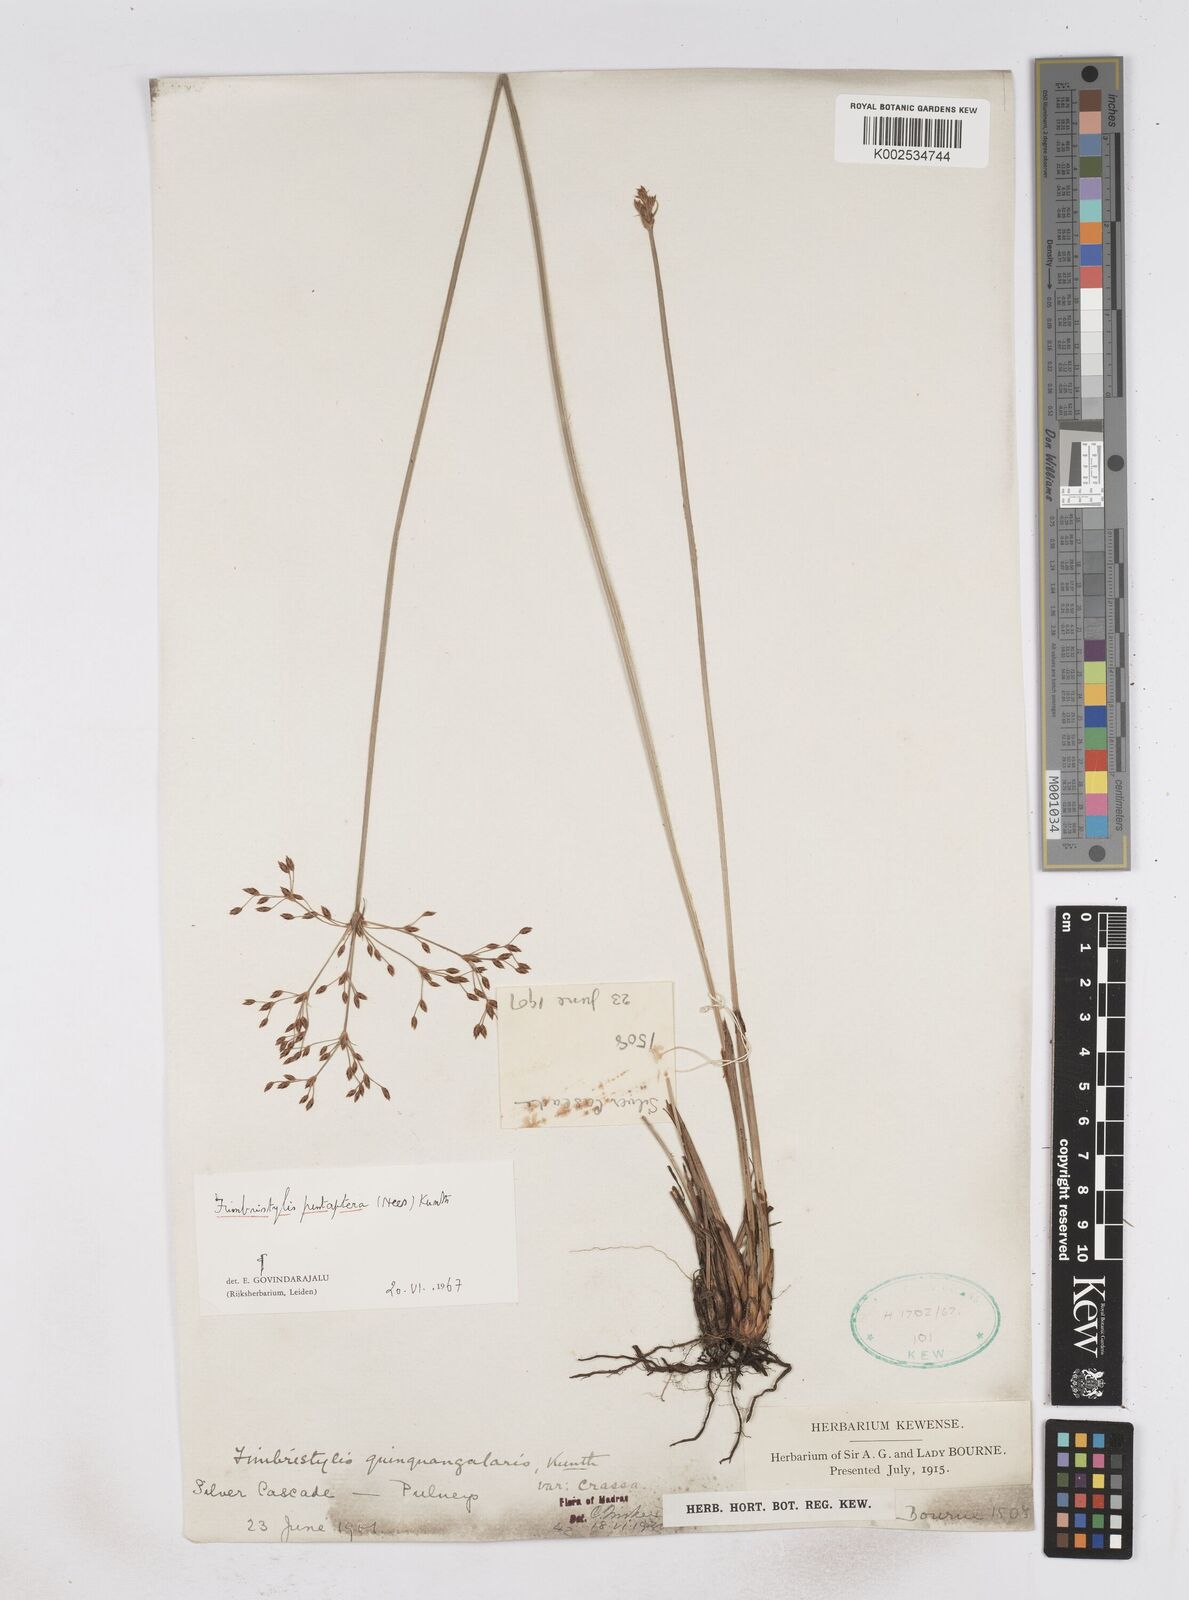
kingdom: Plantae
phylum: Tracheophyta
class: Liliopsida
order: Poales
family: Cyperaceae
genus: Fimbristylis
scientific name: Fimbristylis salbundia
